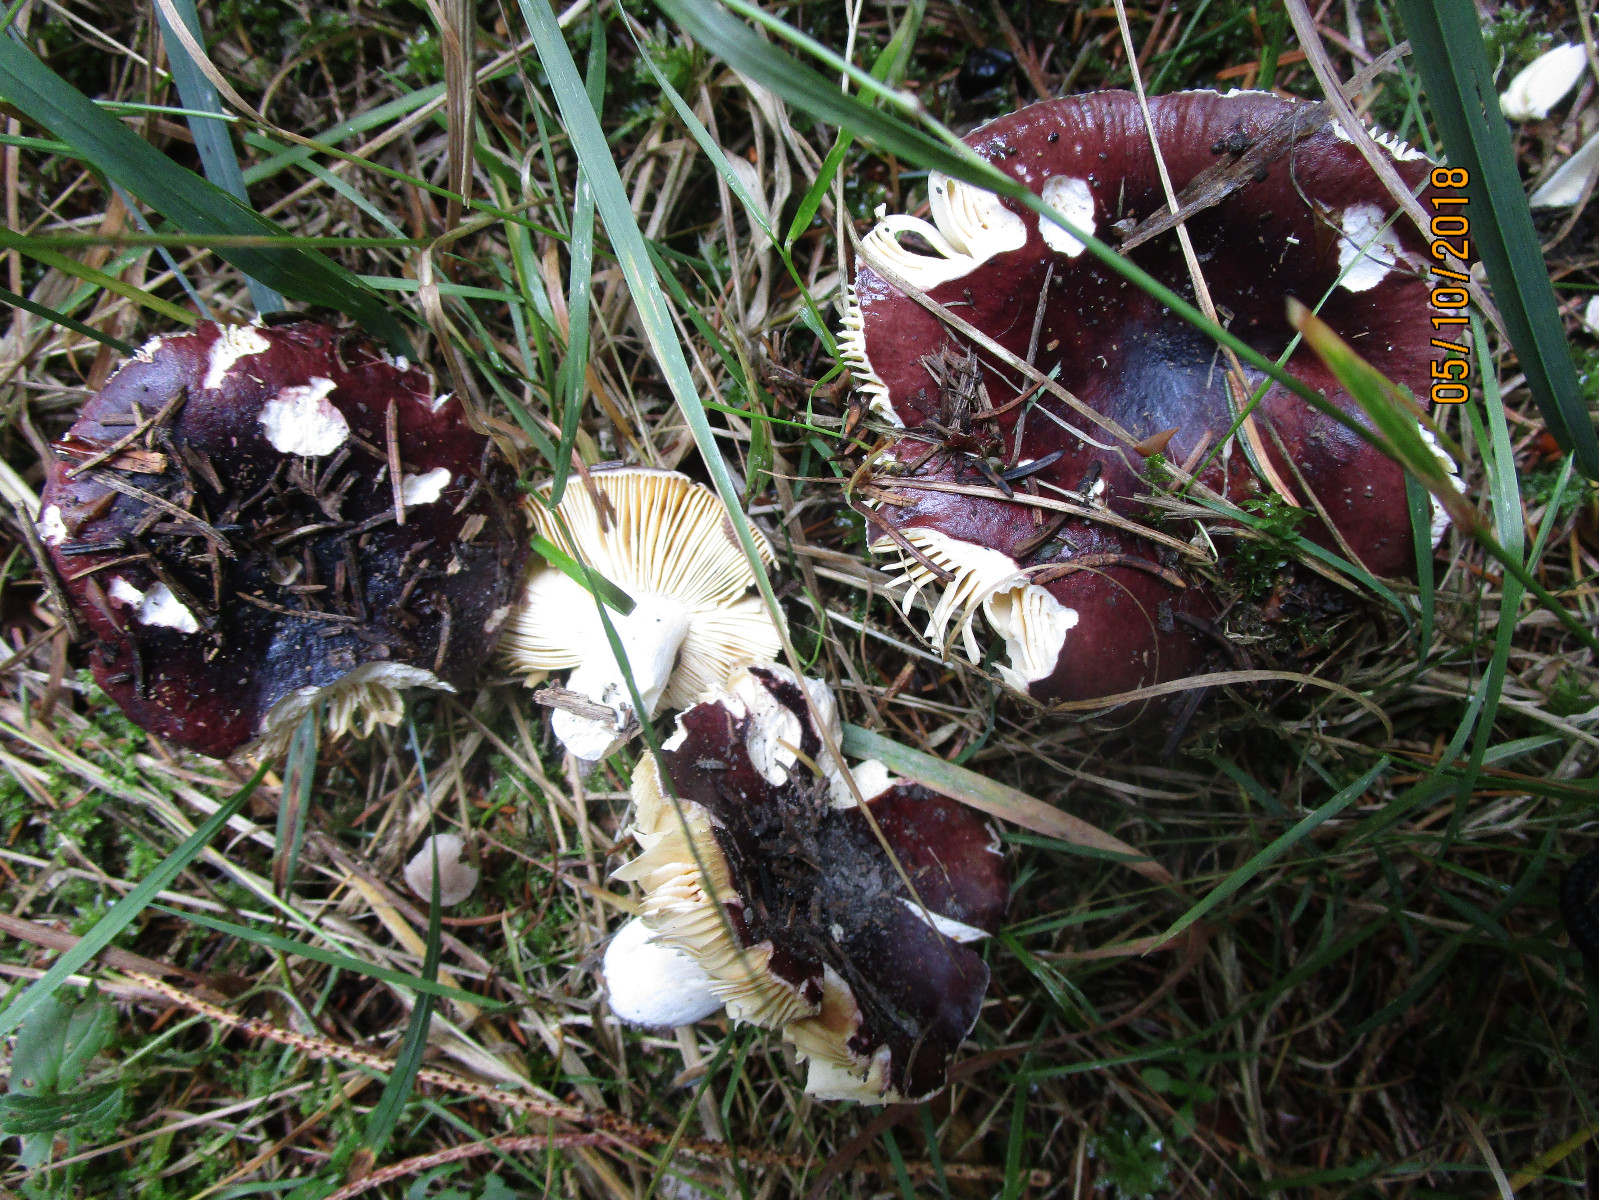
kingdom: Fungi
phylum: Basidiomycota
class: Agaricomycetes
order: Russulales
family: Russulaceae
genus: Russula
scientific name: Russula integra
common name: mandel-skørhat
